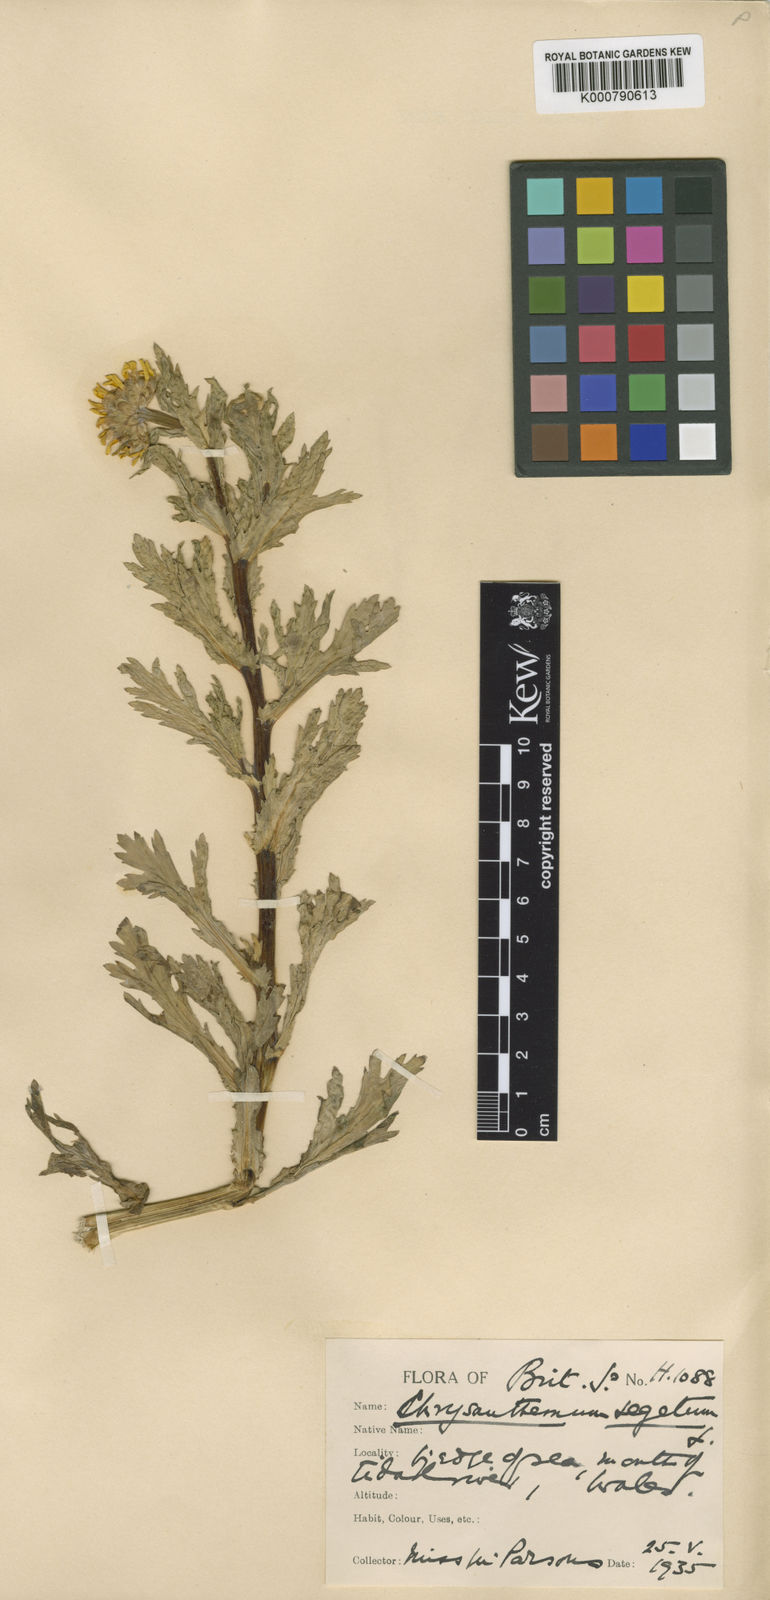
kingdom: Plantae
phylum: Tracheophyta
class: Magnoliopsida
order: Asterales
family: Asteraceae
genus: Glebionis
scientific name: Glebionis
